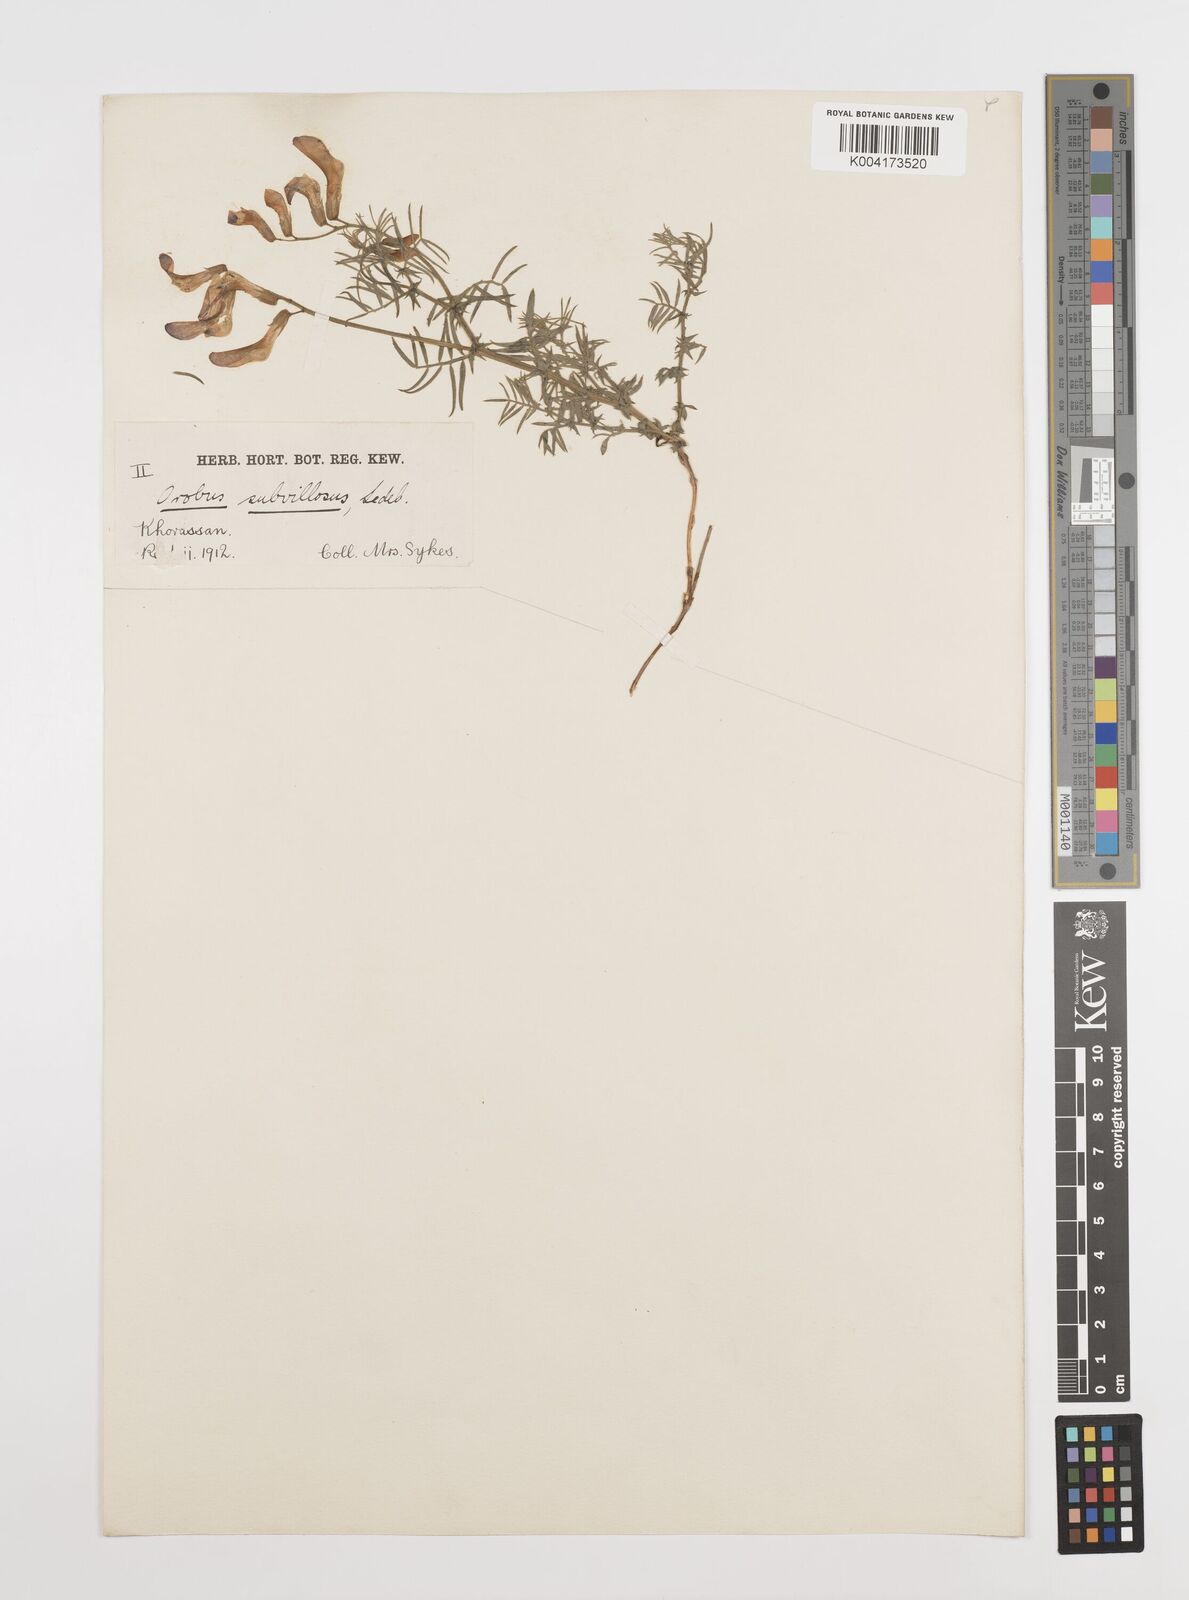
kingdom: Plantae
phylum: Tracheophyta
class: Magnoliopsida
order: Fabales
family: Fabaceae
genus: Vicia
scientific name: Vicia subvillosa
